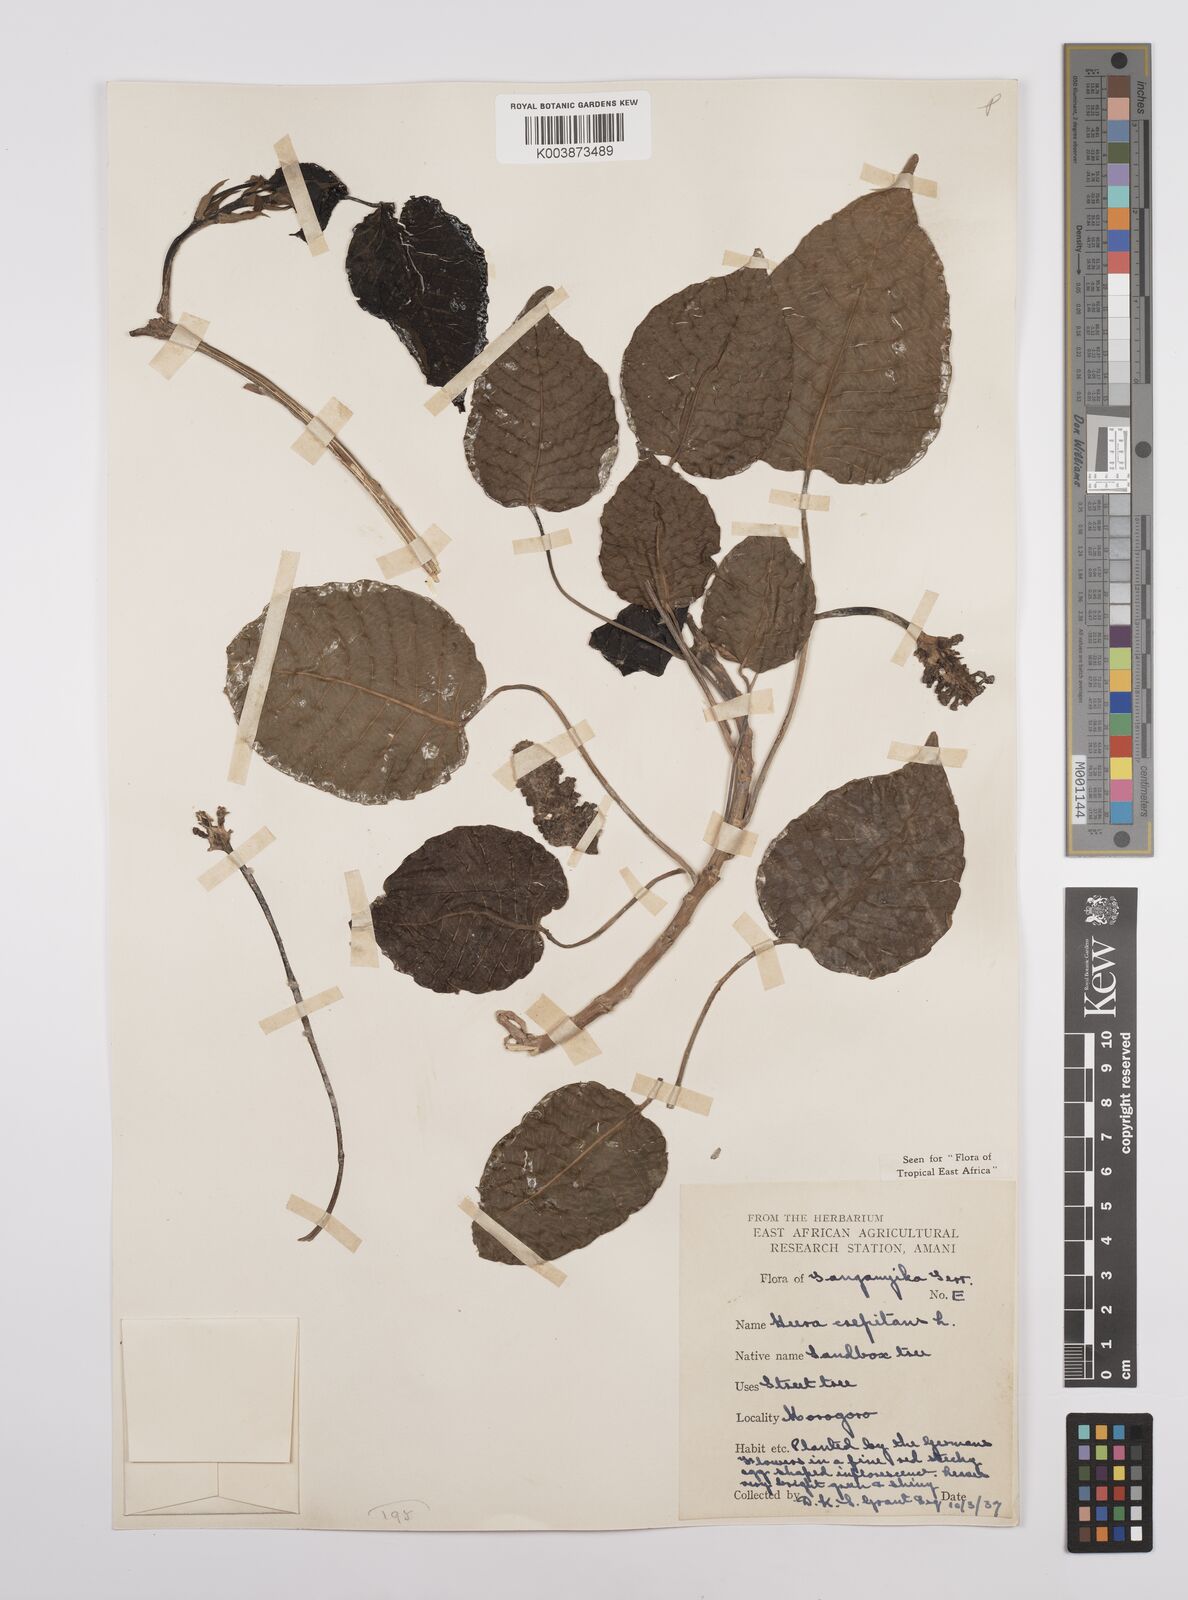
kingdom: Plantae
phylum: Tracheophyta
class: Magnoliopsida
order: Malpighiales
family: Euphorbiaceae
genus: Hura
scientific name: Hura crepitans
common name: Sandboxtree
